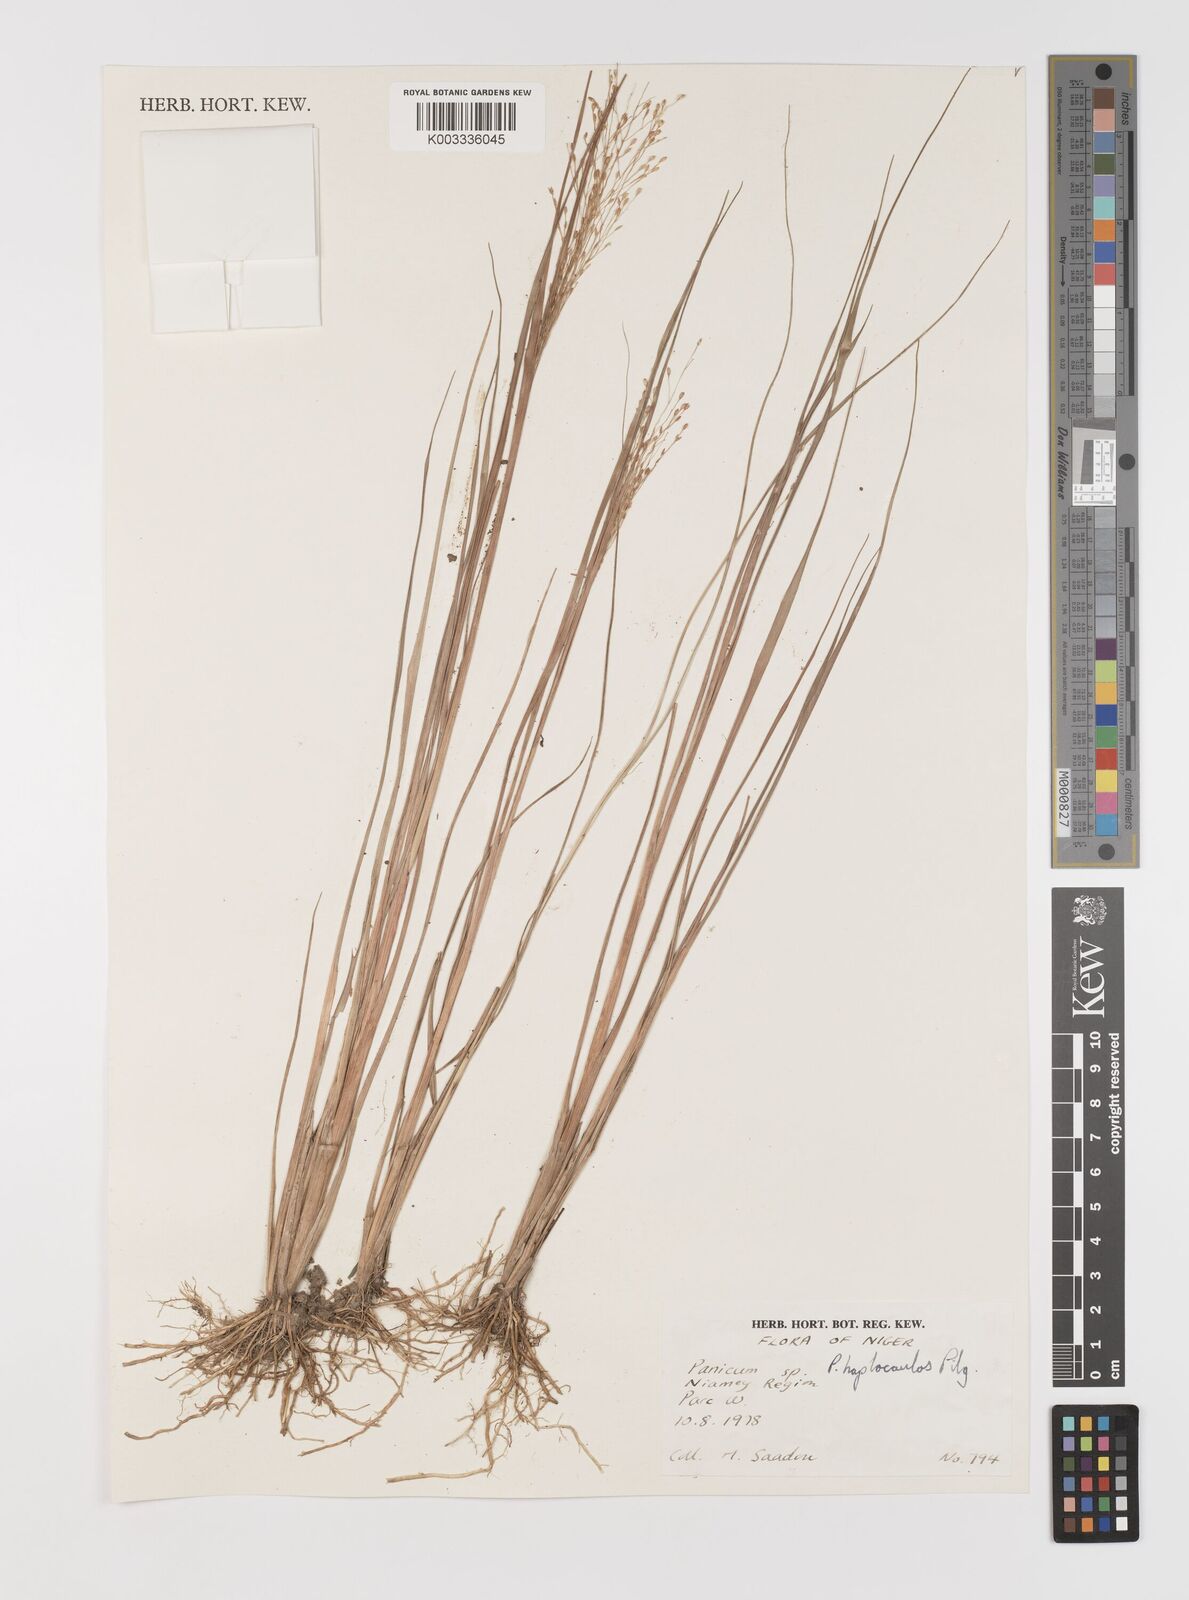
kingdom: Plantae
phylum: Tracheophyta
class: Liliopsida
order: Poales
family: Poaceae
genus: Panicum
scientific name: Panicum haplocaulos
